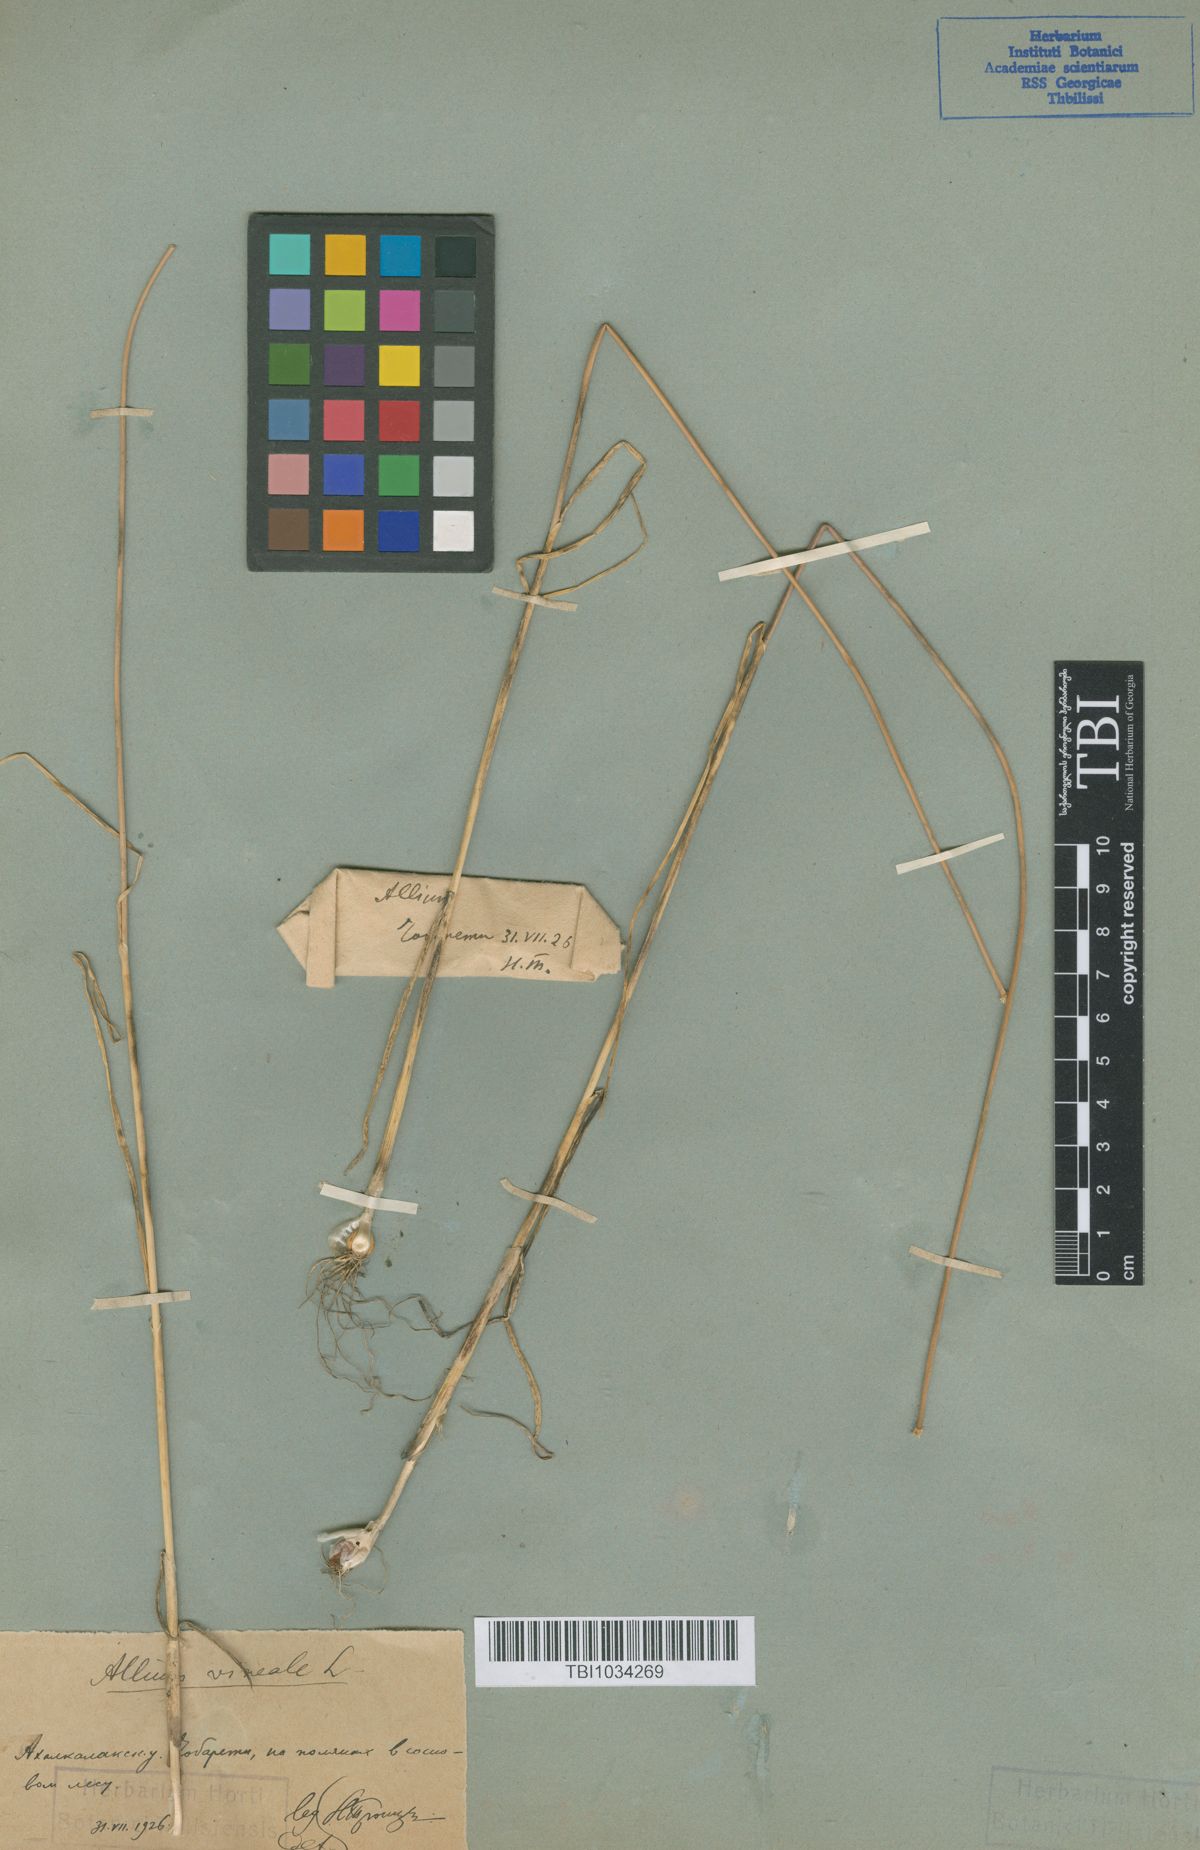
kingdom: Plantae
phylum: Tracheophyta
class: Liliopsida
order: Asparagales
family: Amaryllidaceae
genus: Allium
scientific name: Allium vineale
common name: Crow garlic
